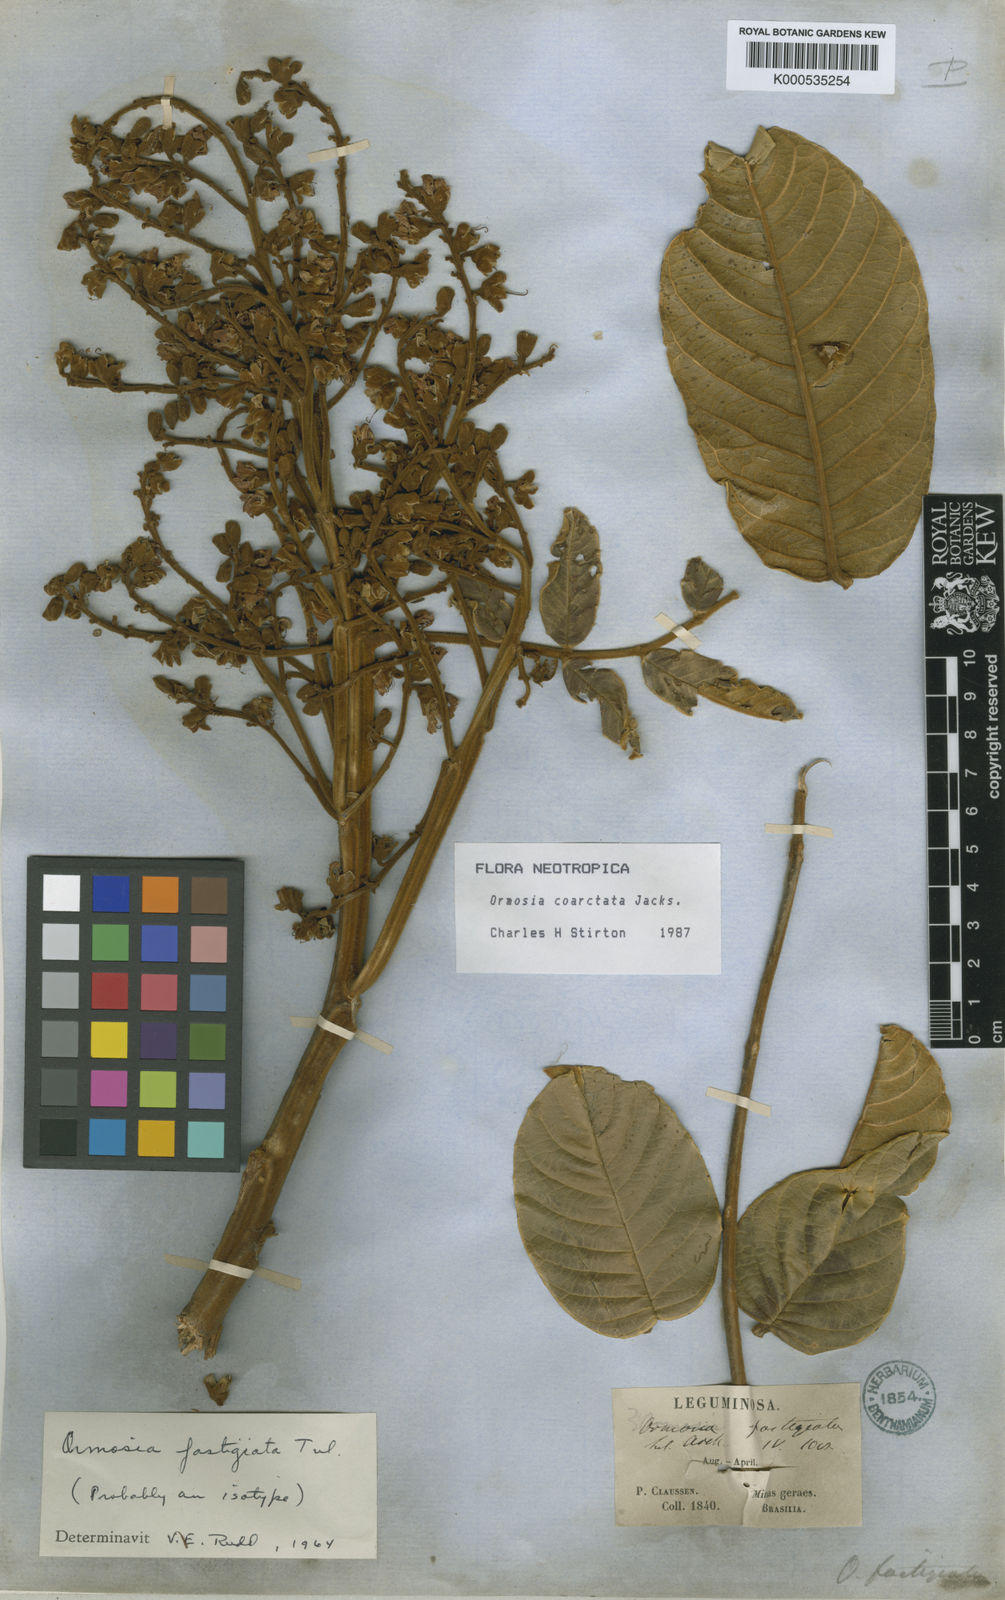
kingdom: Plantae
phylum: Tracheophyta
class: Magnoliopsida
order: Fabales
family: Fabaceae
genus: Ormosia
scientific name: Ormosia coarctata
